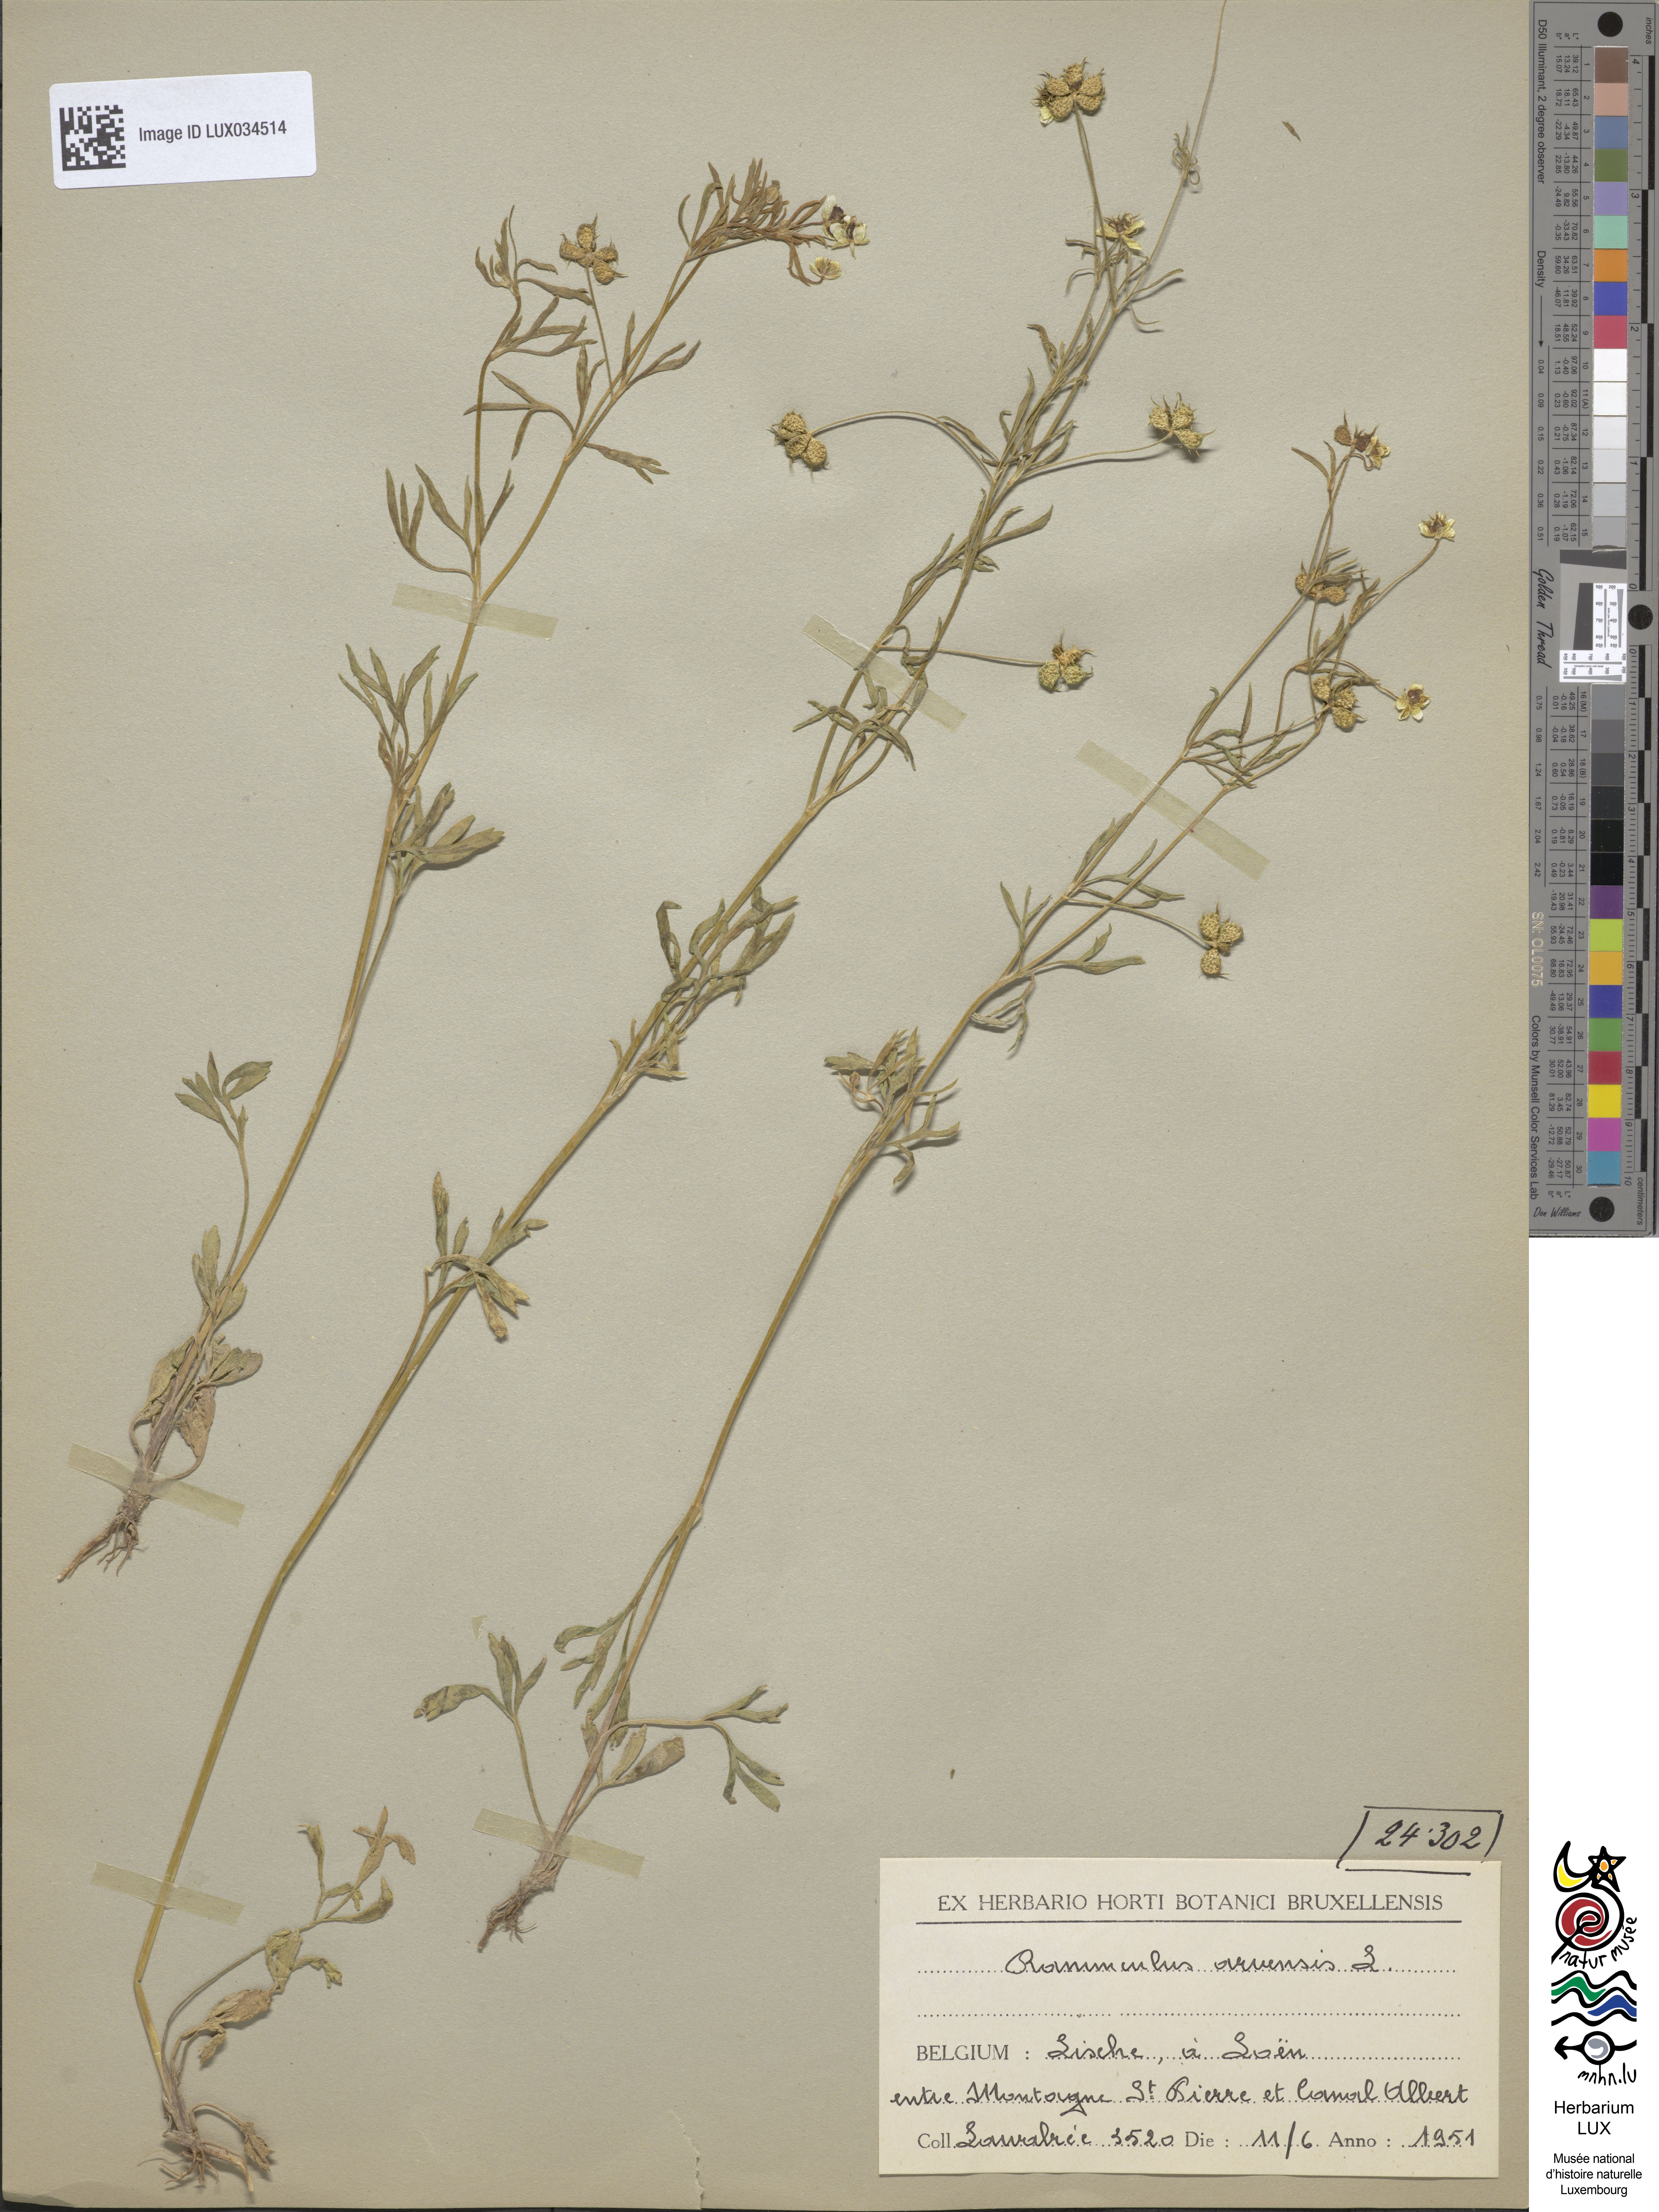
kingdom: Plantae
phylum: Tracheophyta
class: Magnoliopsida
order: Ranunculales
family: Ranunculaceae
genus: Ranunculus
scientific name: Ranunculus arvensis
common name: Corn buttercup
